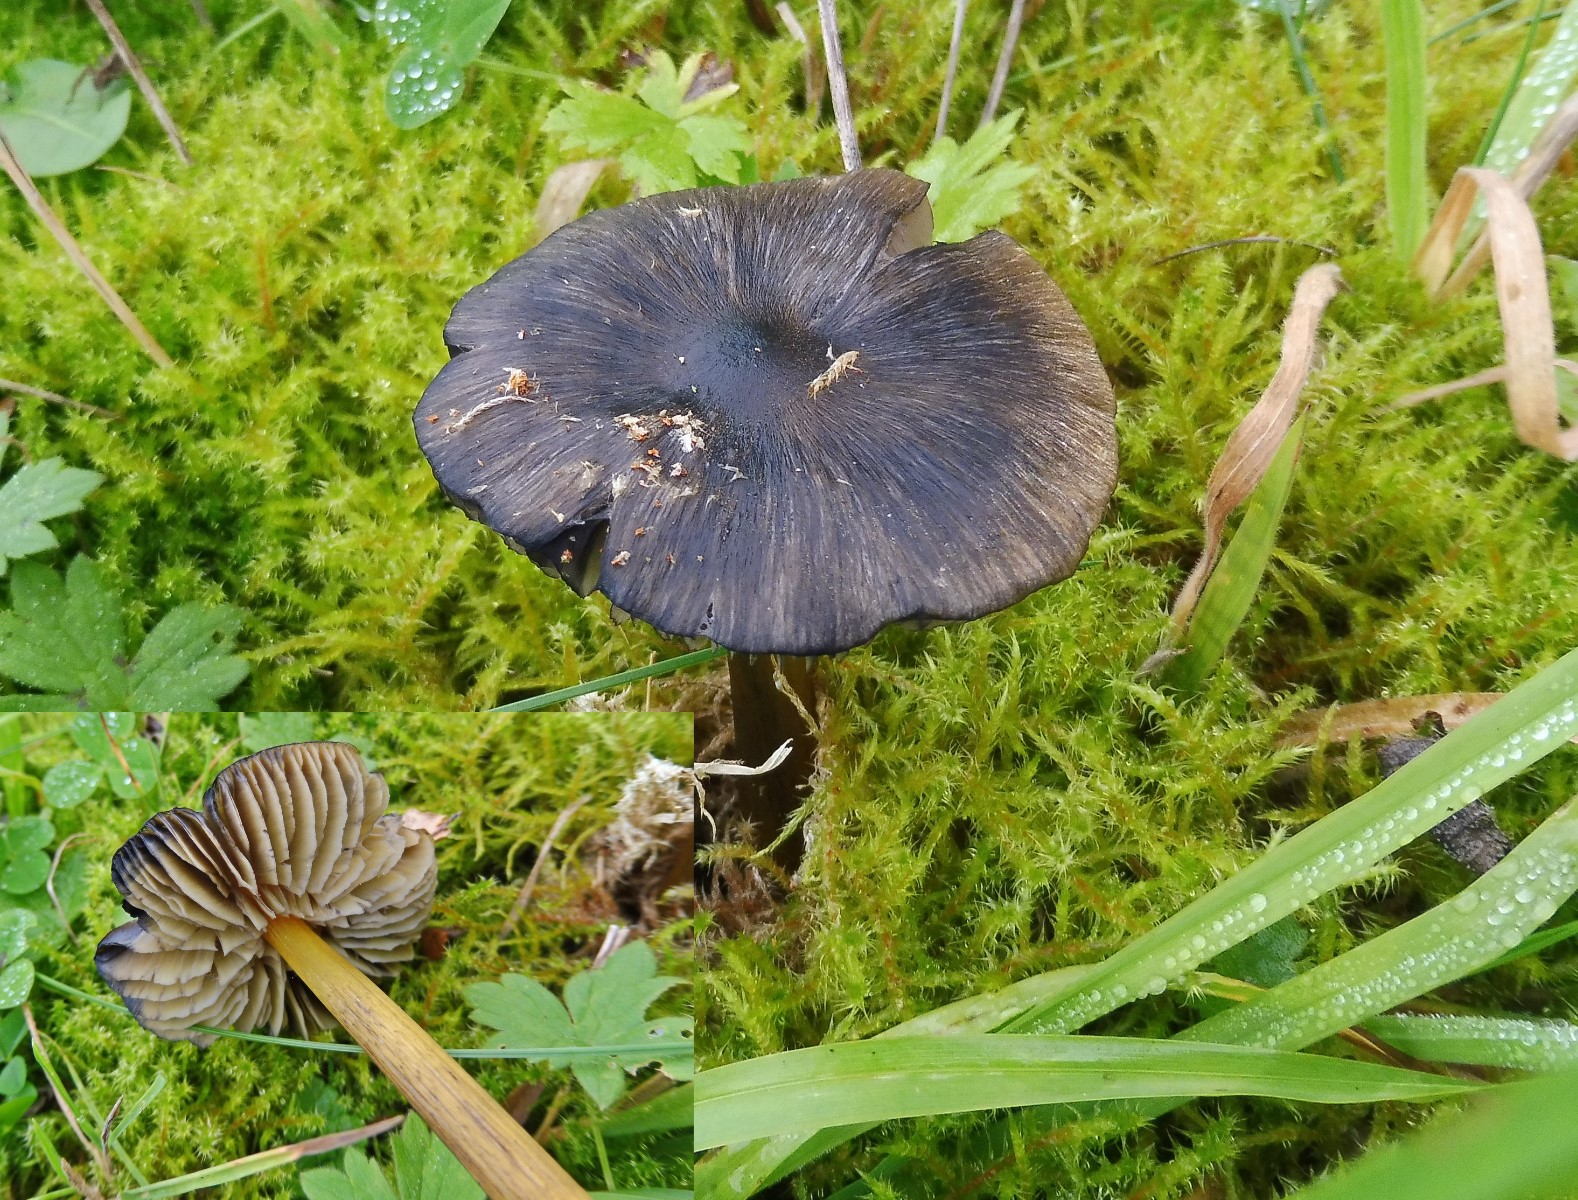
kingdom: Fungi
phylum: Basidiomycota
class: Agaricomycetes
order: Agaricales
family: Hygrophoraceae
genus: Hygrocybe
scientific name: Hygrocybe conica
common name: kegle-vokshat
